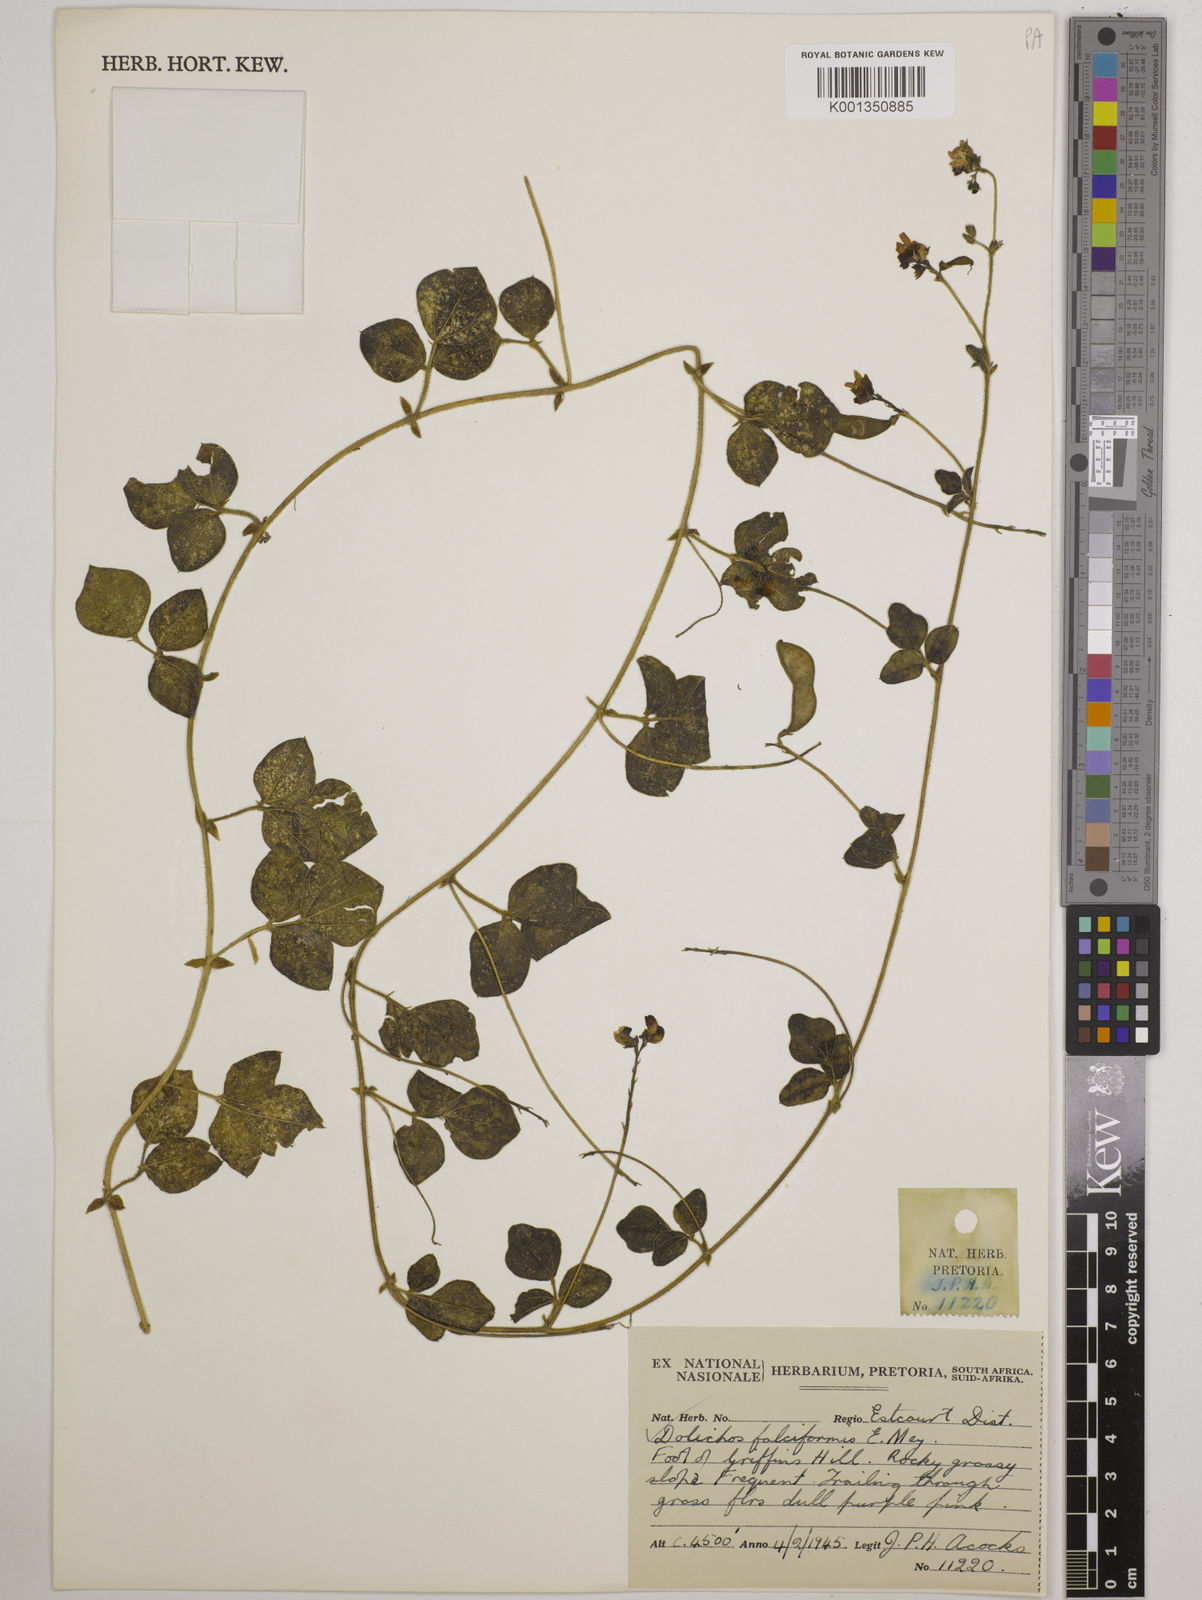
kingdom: Plantae
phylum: Tracheophyta
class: Magnoliopsida
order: Fabales
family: Fabaceae
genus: Dolichos
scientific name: Dolichos falciformis
